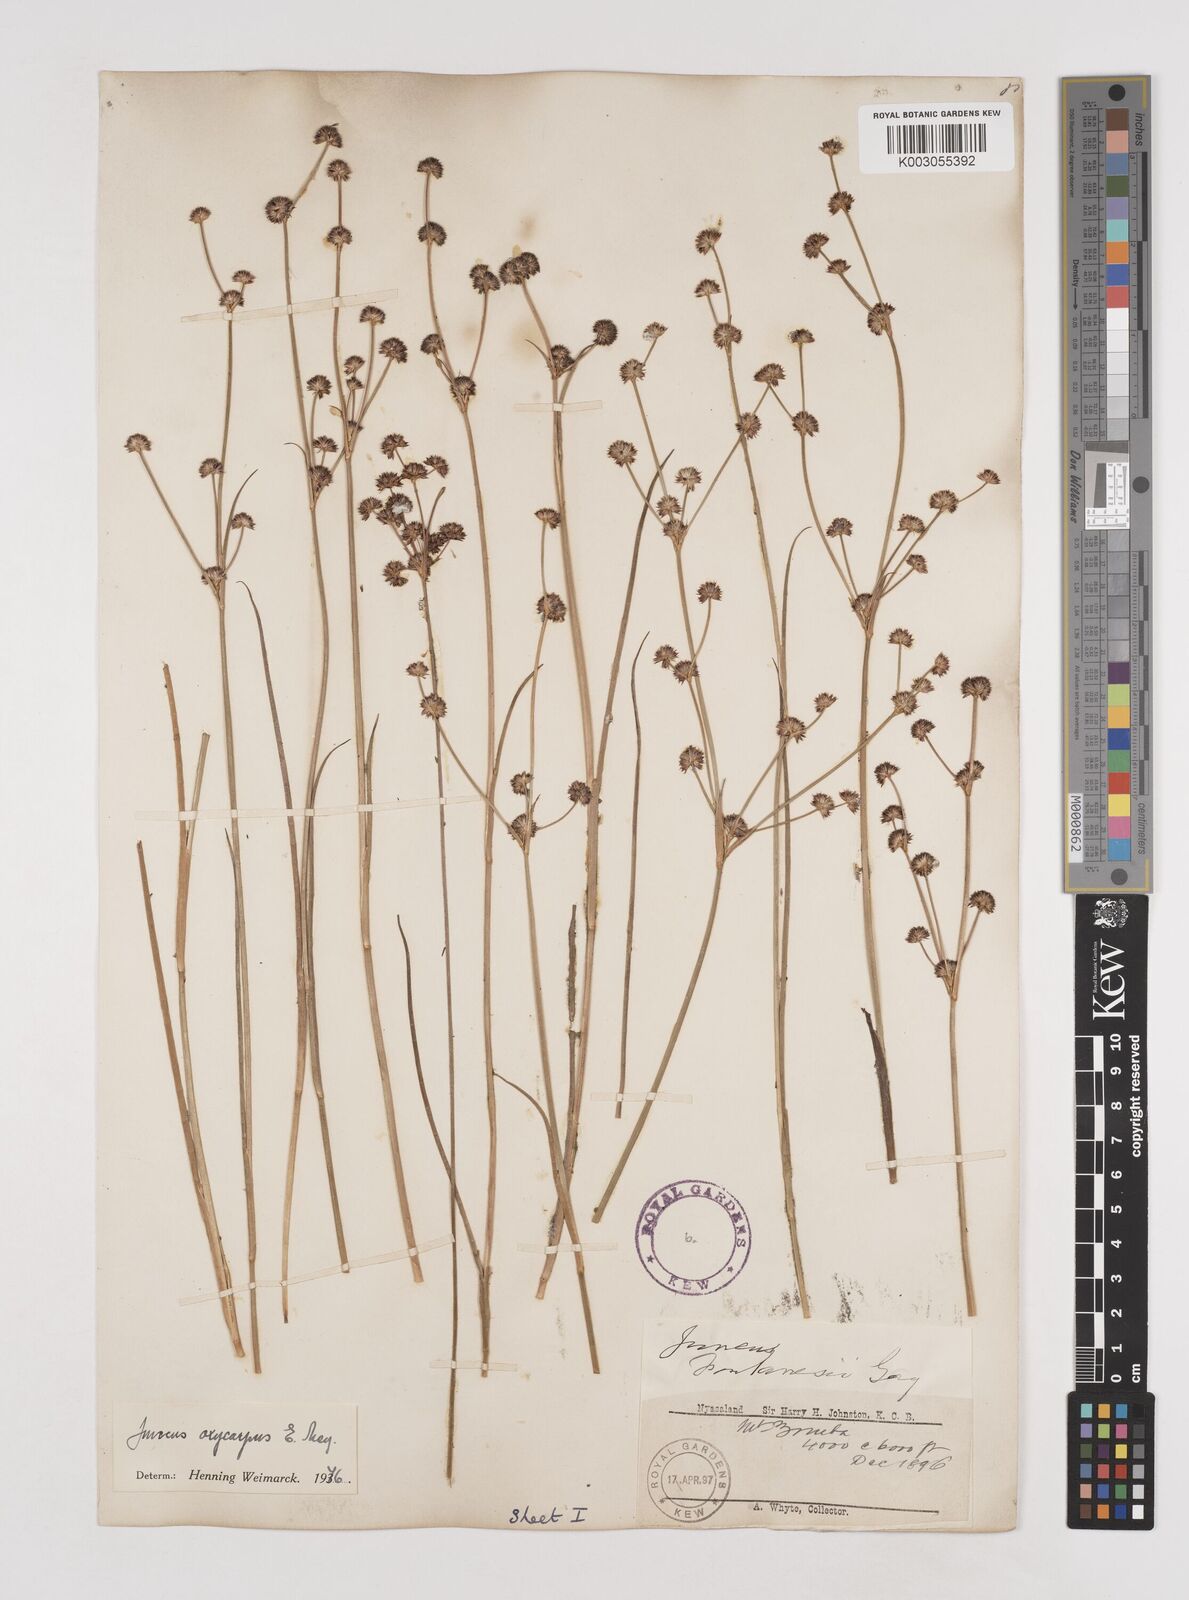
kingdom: Plantae
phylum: Tracheophyta
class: Liliopsida
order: Poales
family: Juncaceae
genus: Juncus
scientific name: Juncus oxycarpus
